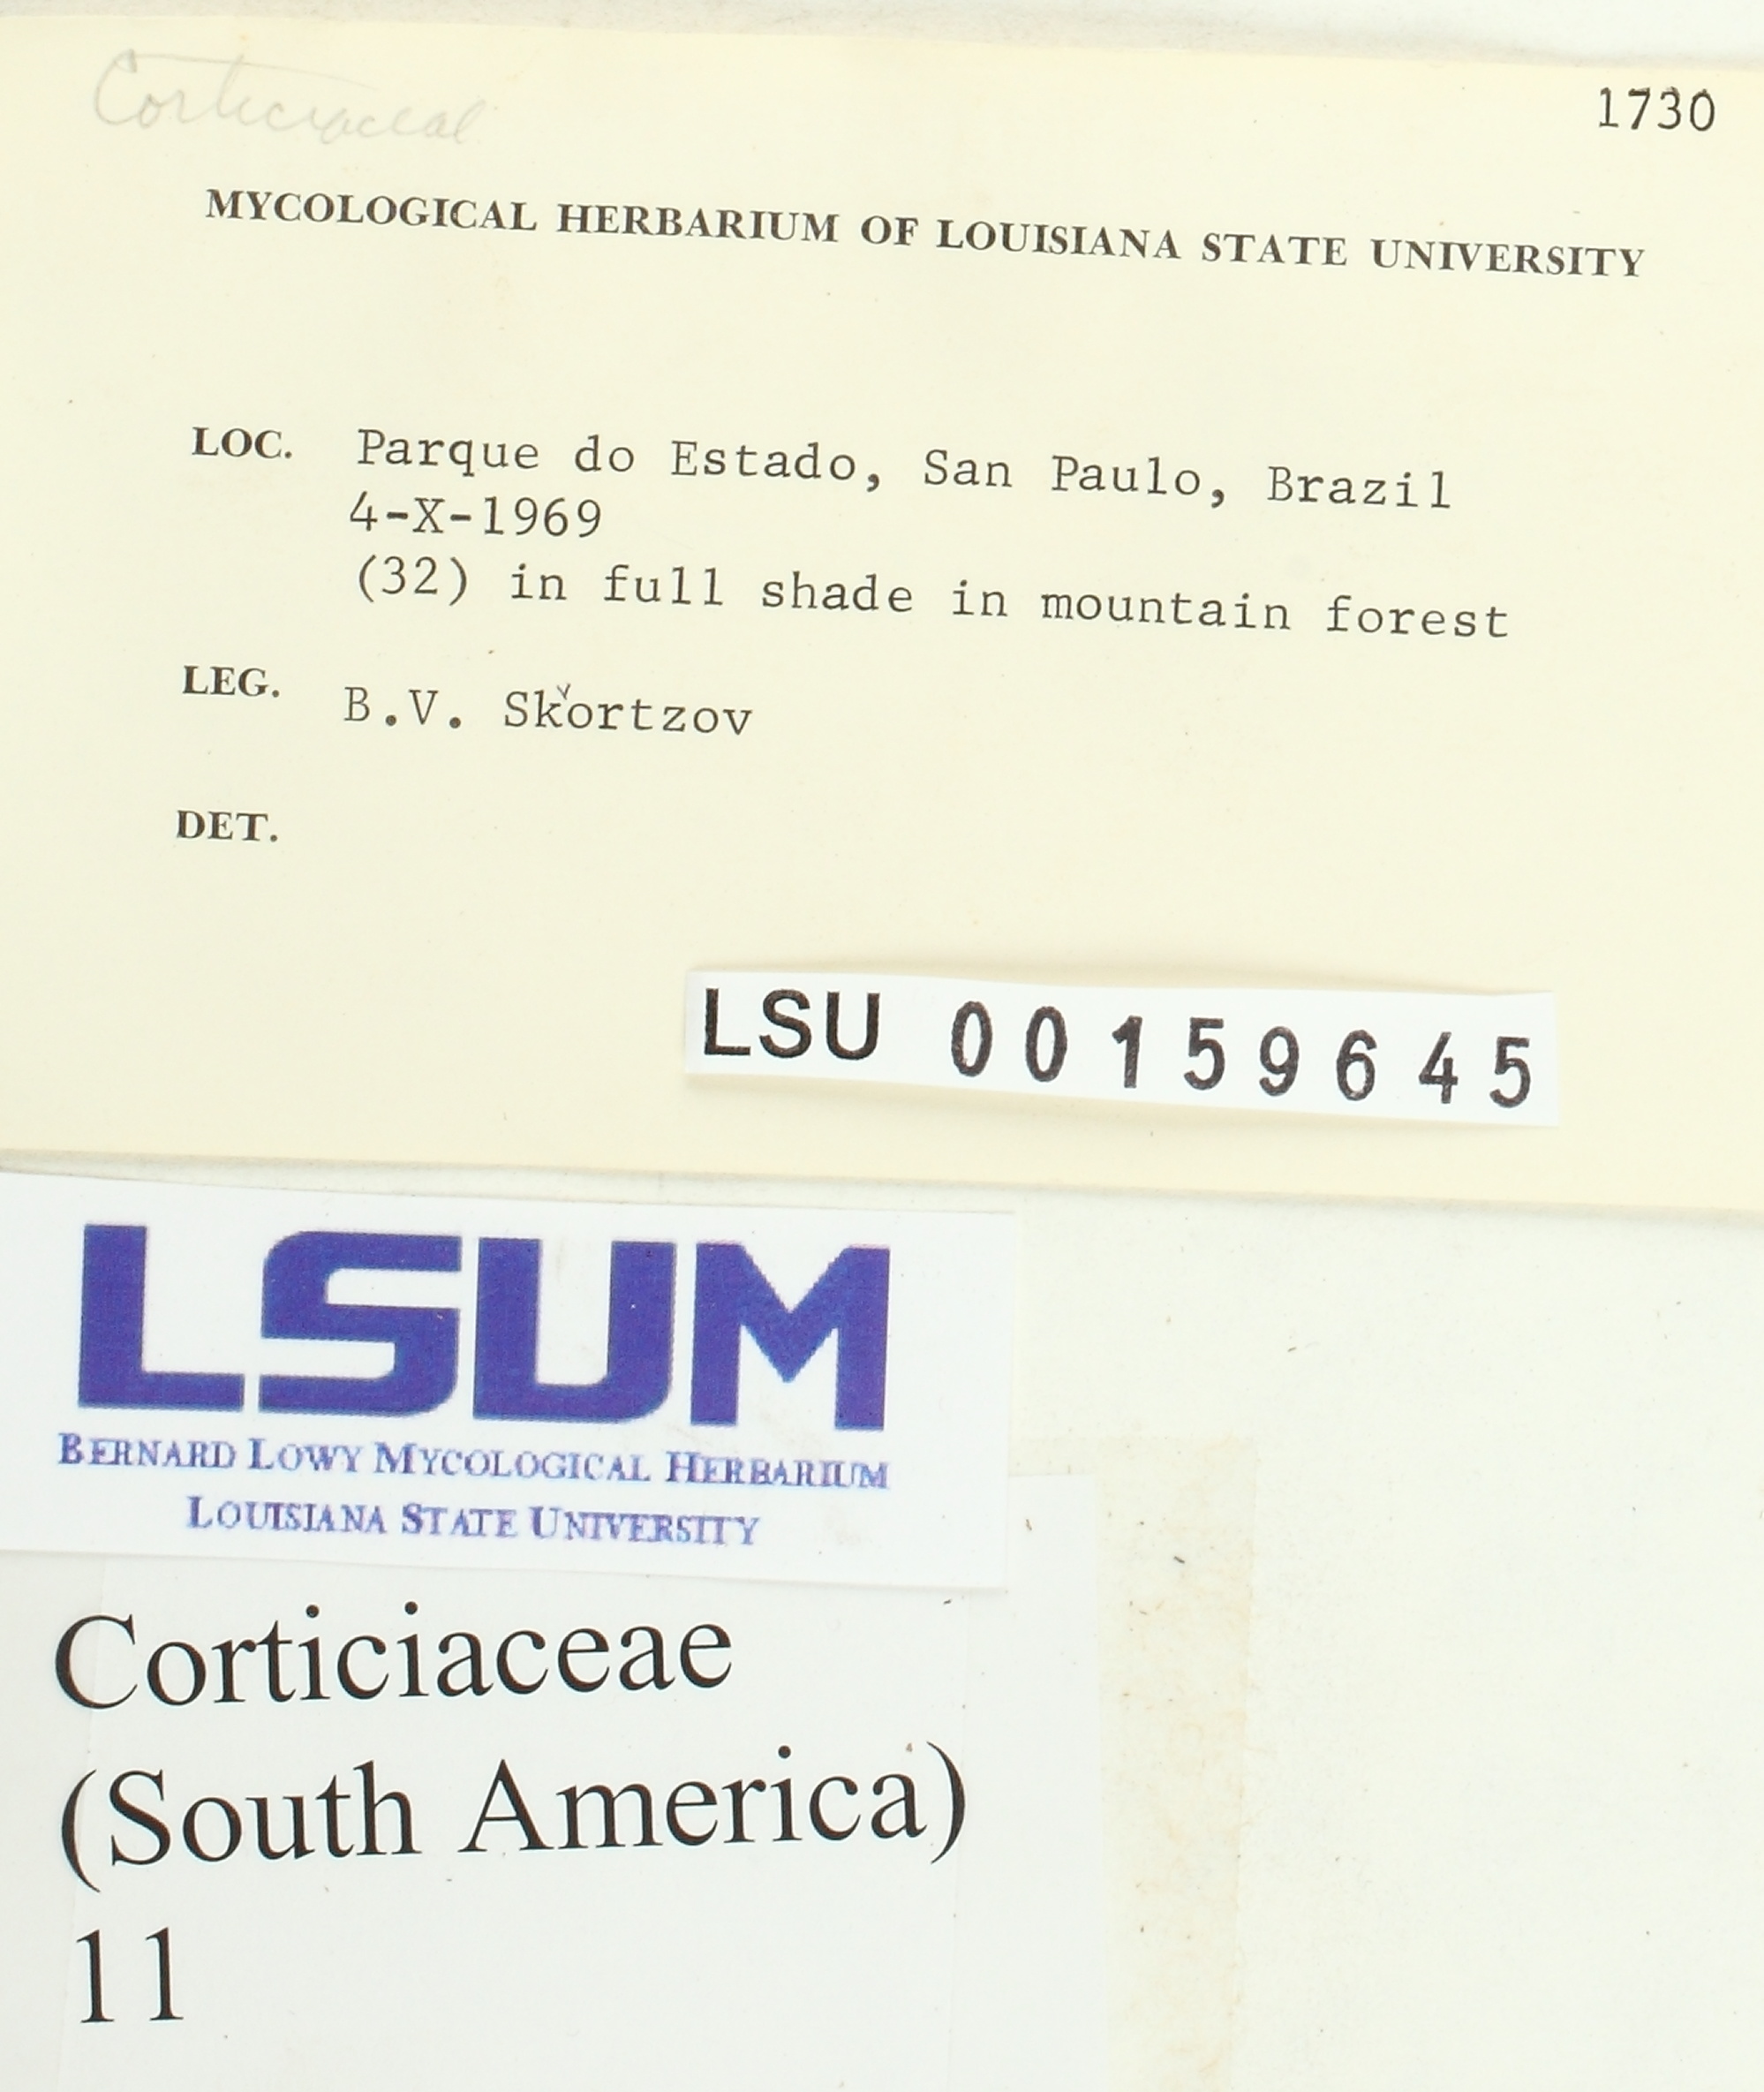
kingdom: Fungi
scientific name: Fungi
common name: Fungi
